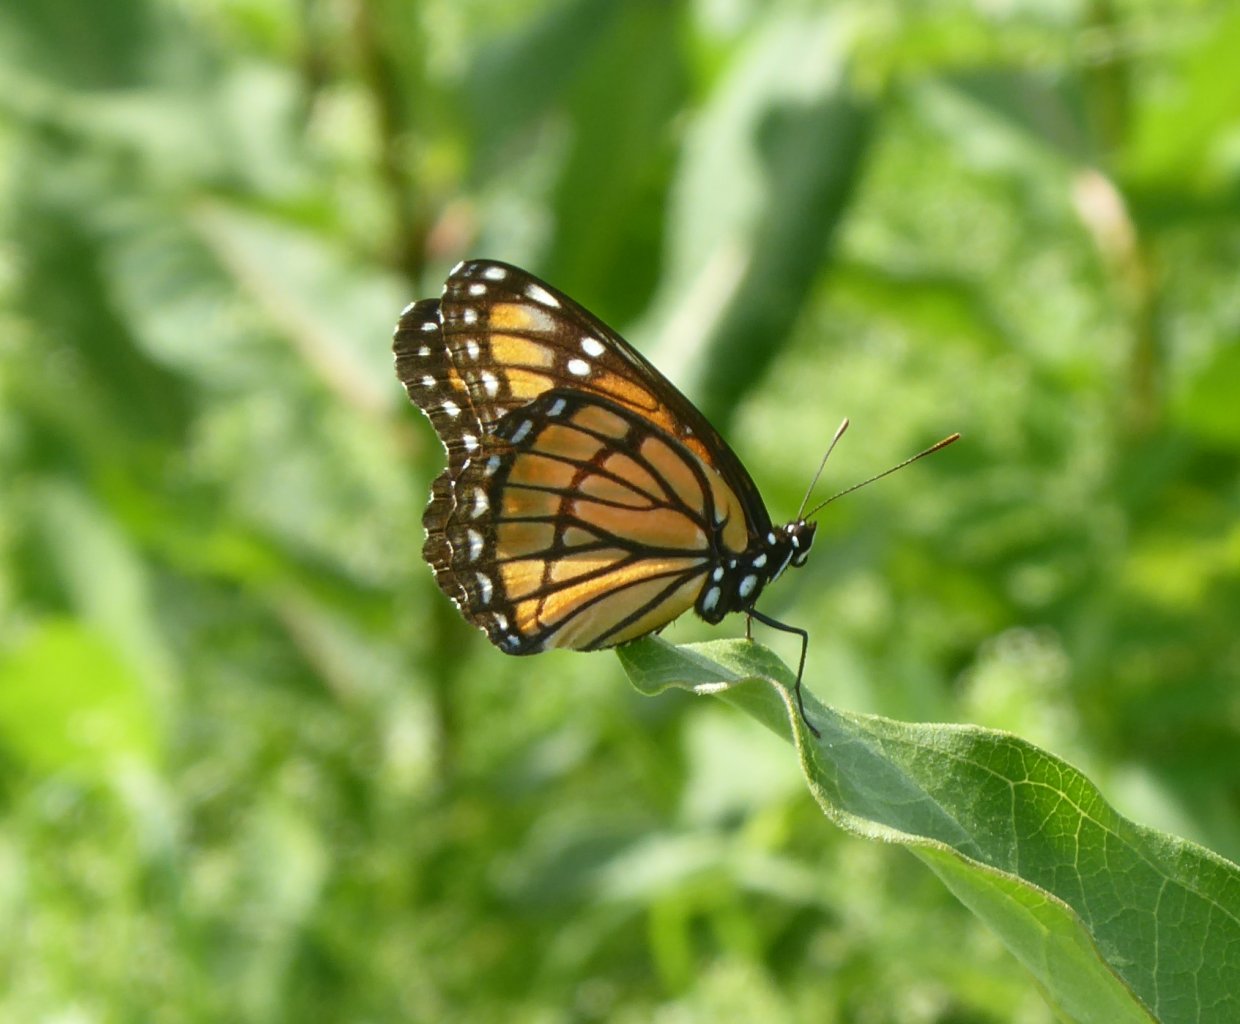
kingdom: Animalia
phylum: Arthropoda
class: Insecta
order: Lepidoptera
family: Nymphalidae
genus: Limenitis
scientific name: Limenitis archippus
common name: Viceroy
